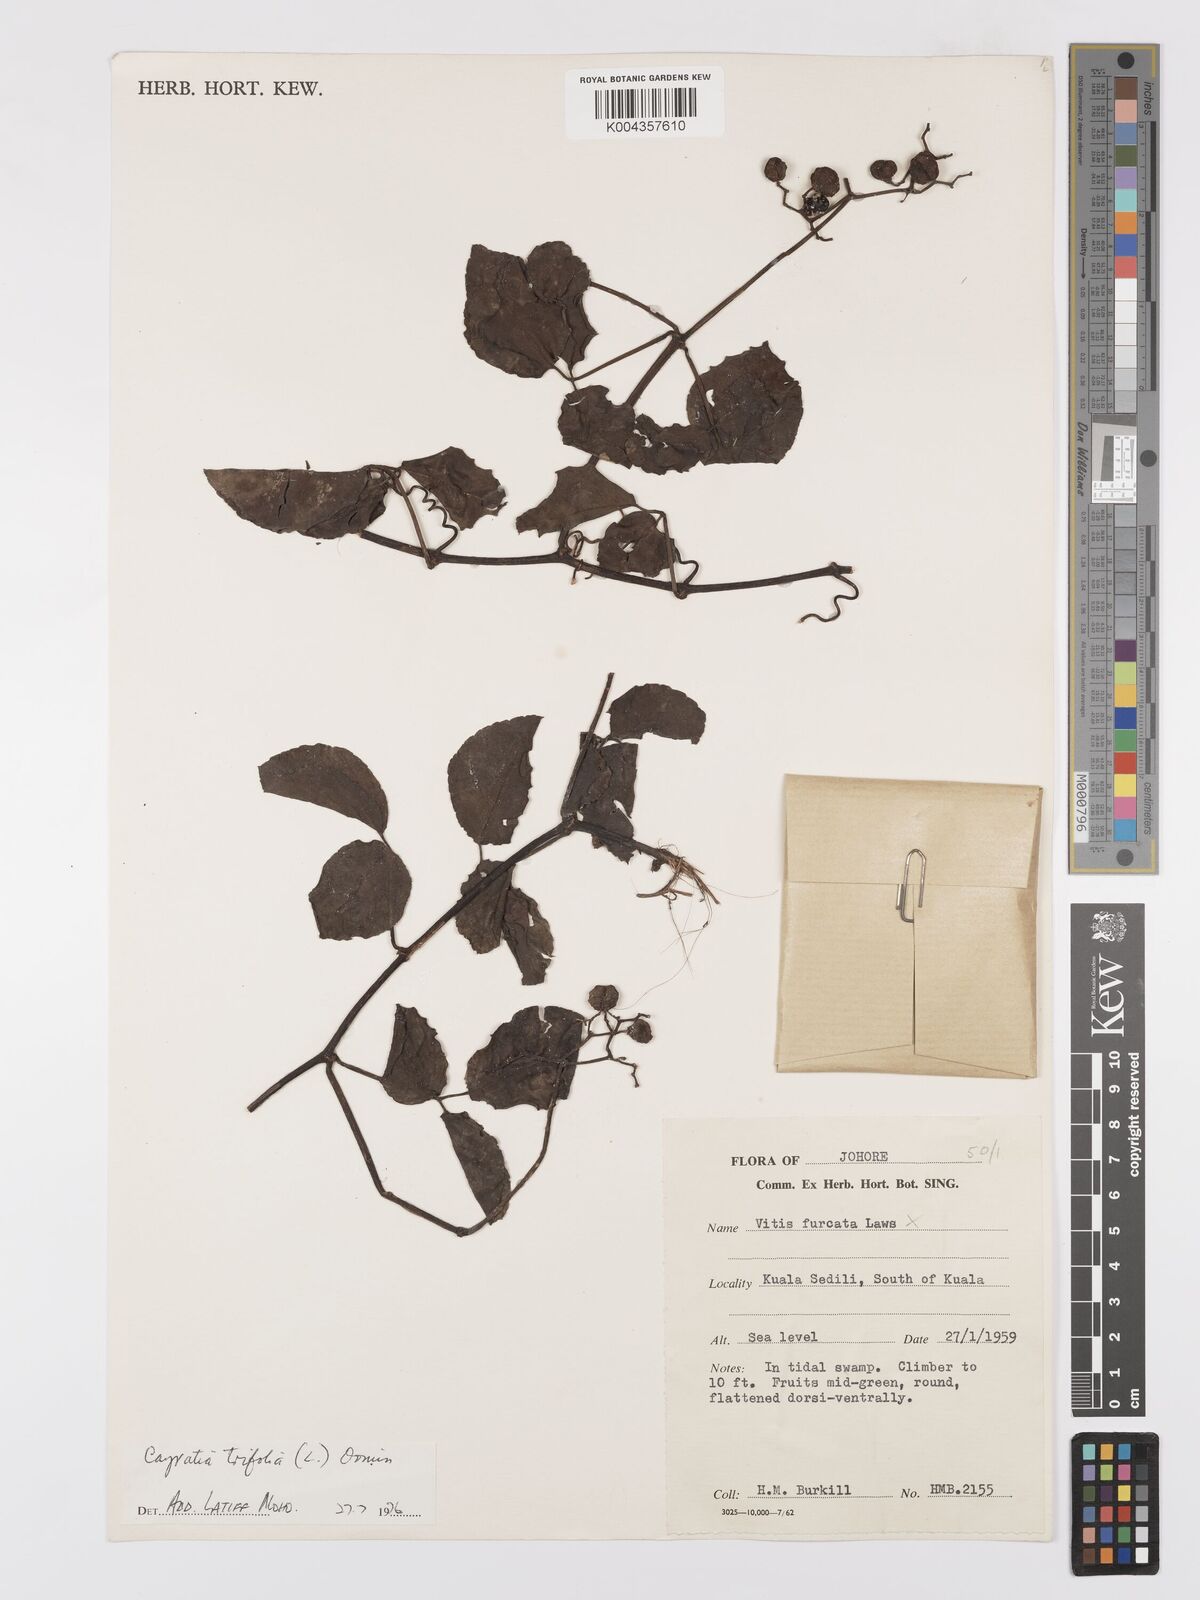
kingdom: Plantae
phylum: Tracheophyta
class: Magnoliopsida
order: Vitales
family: Vitaceae
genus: Causonis
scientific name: Causonis trifolia
